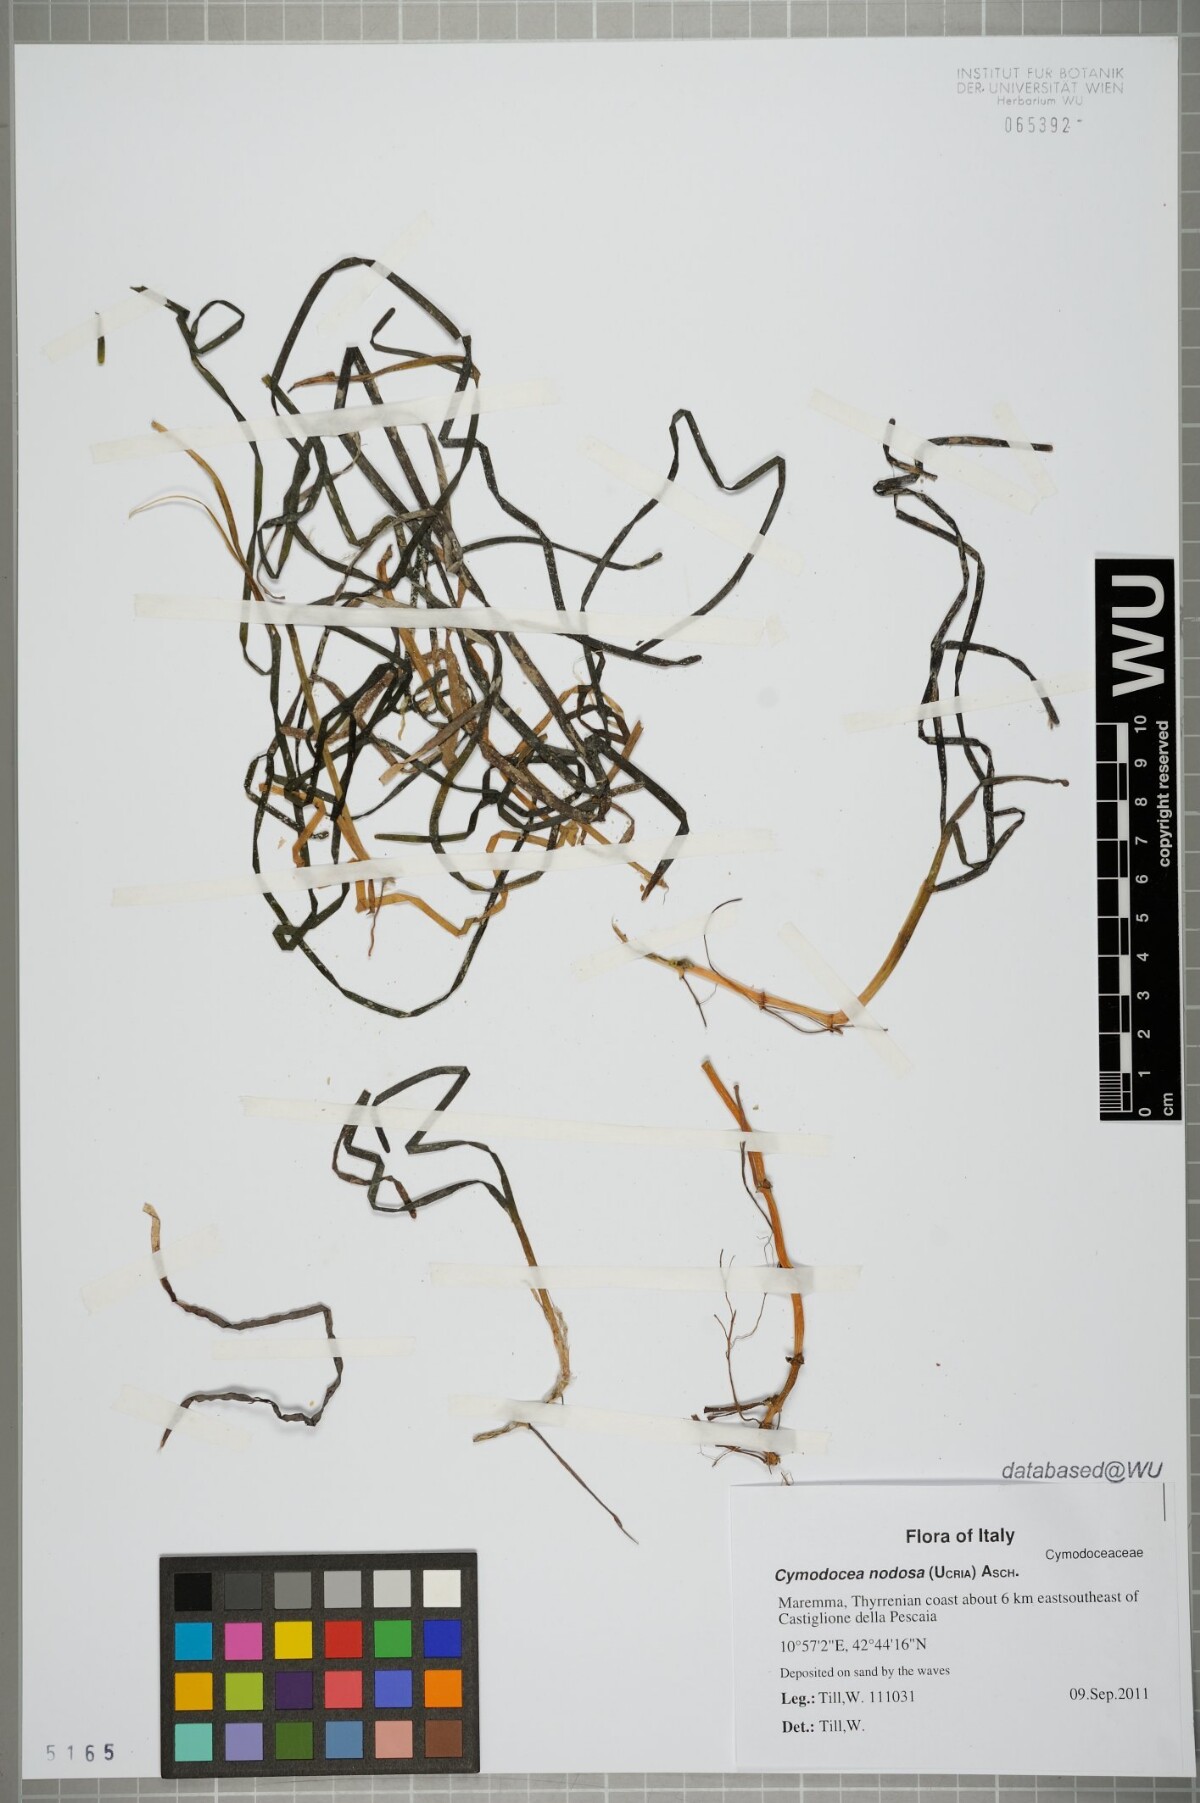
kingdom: Plantae
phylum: Tracheophyta
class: Liliopsida
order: Alismatales
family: Cymodoceaceae
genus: Cymodocea
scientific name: Cymodocea nodosa
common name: Slender seagrass
